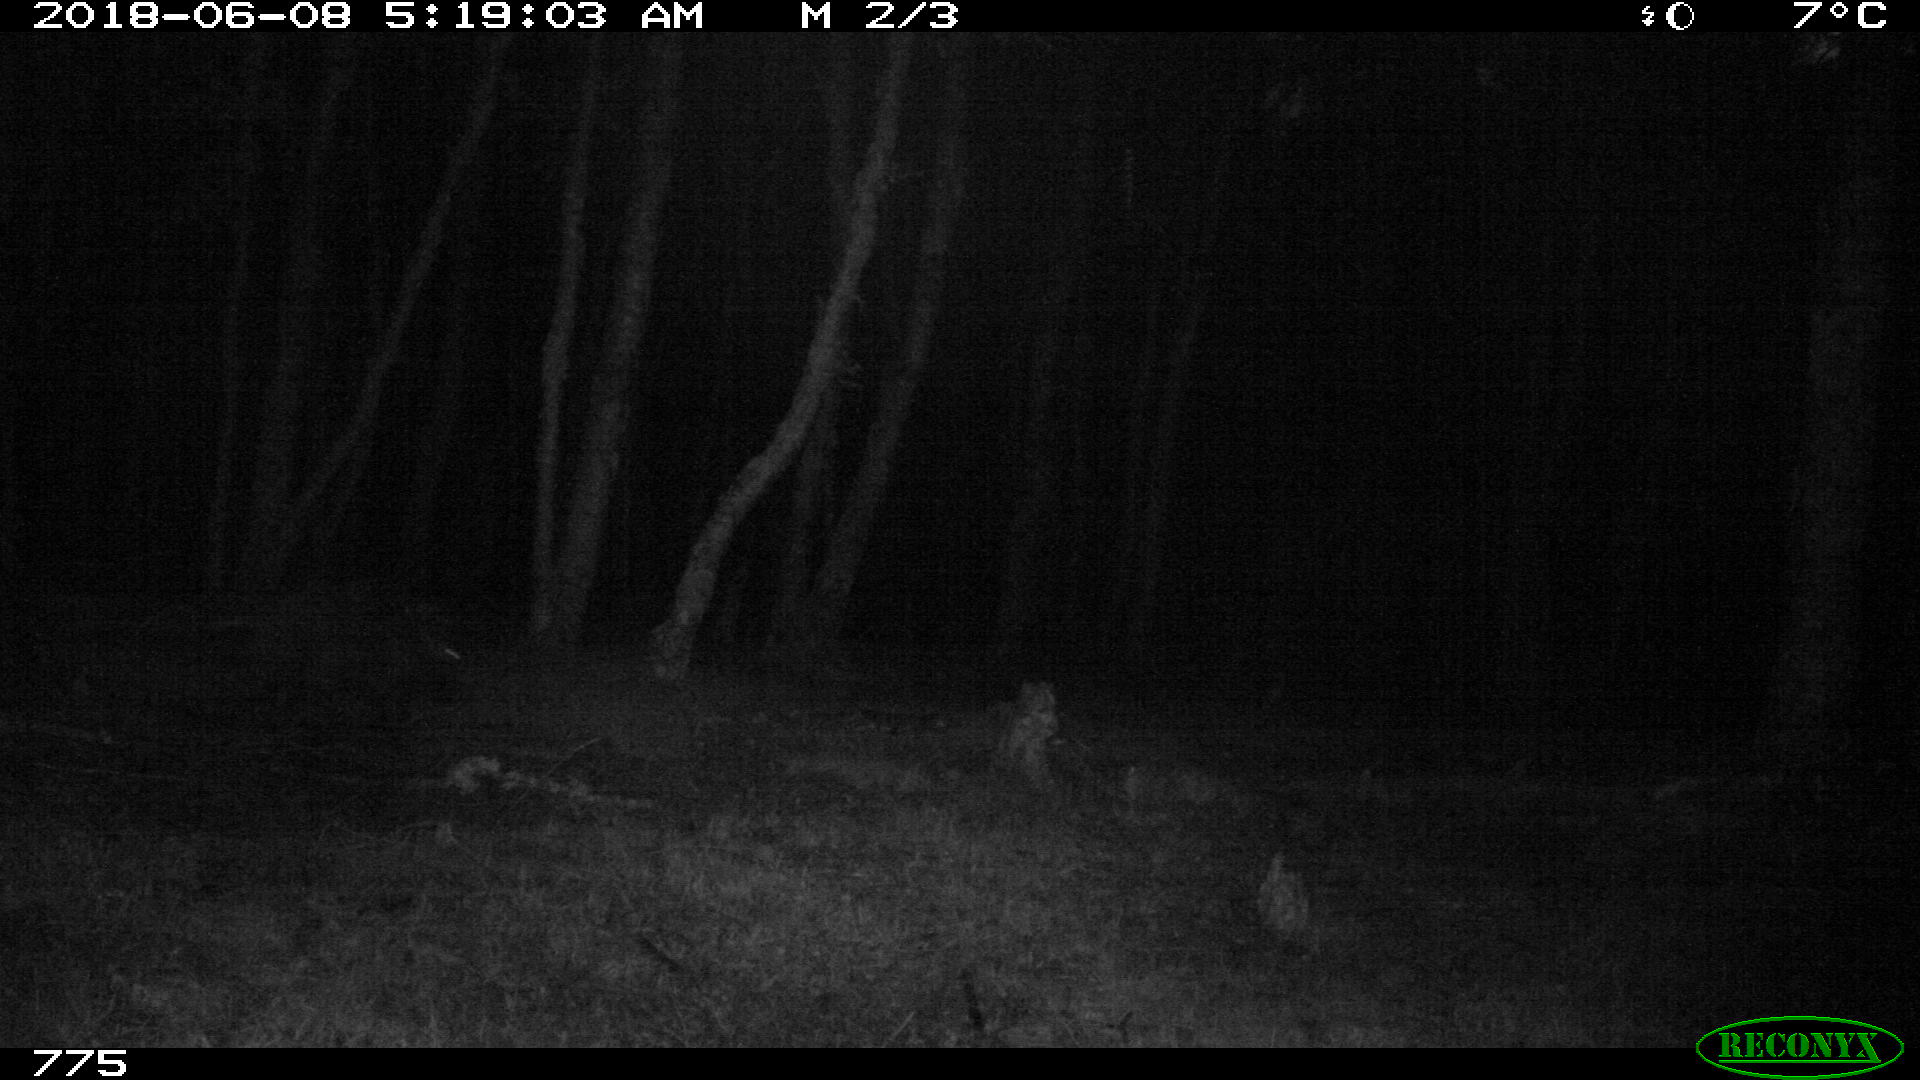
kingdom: Animalia
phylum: Chordata
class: Mammalia
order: Artiodactyla
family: Suidae
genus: Sus
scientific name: Sus scrofa
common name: Wild boar
